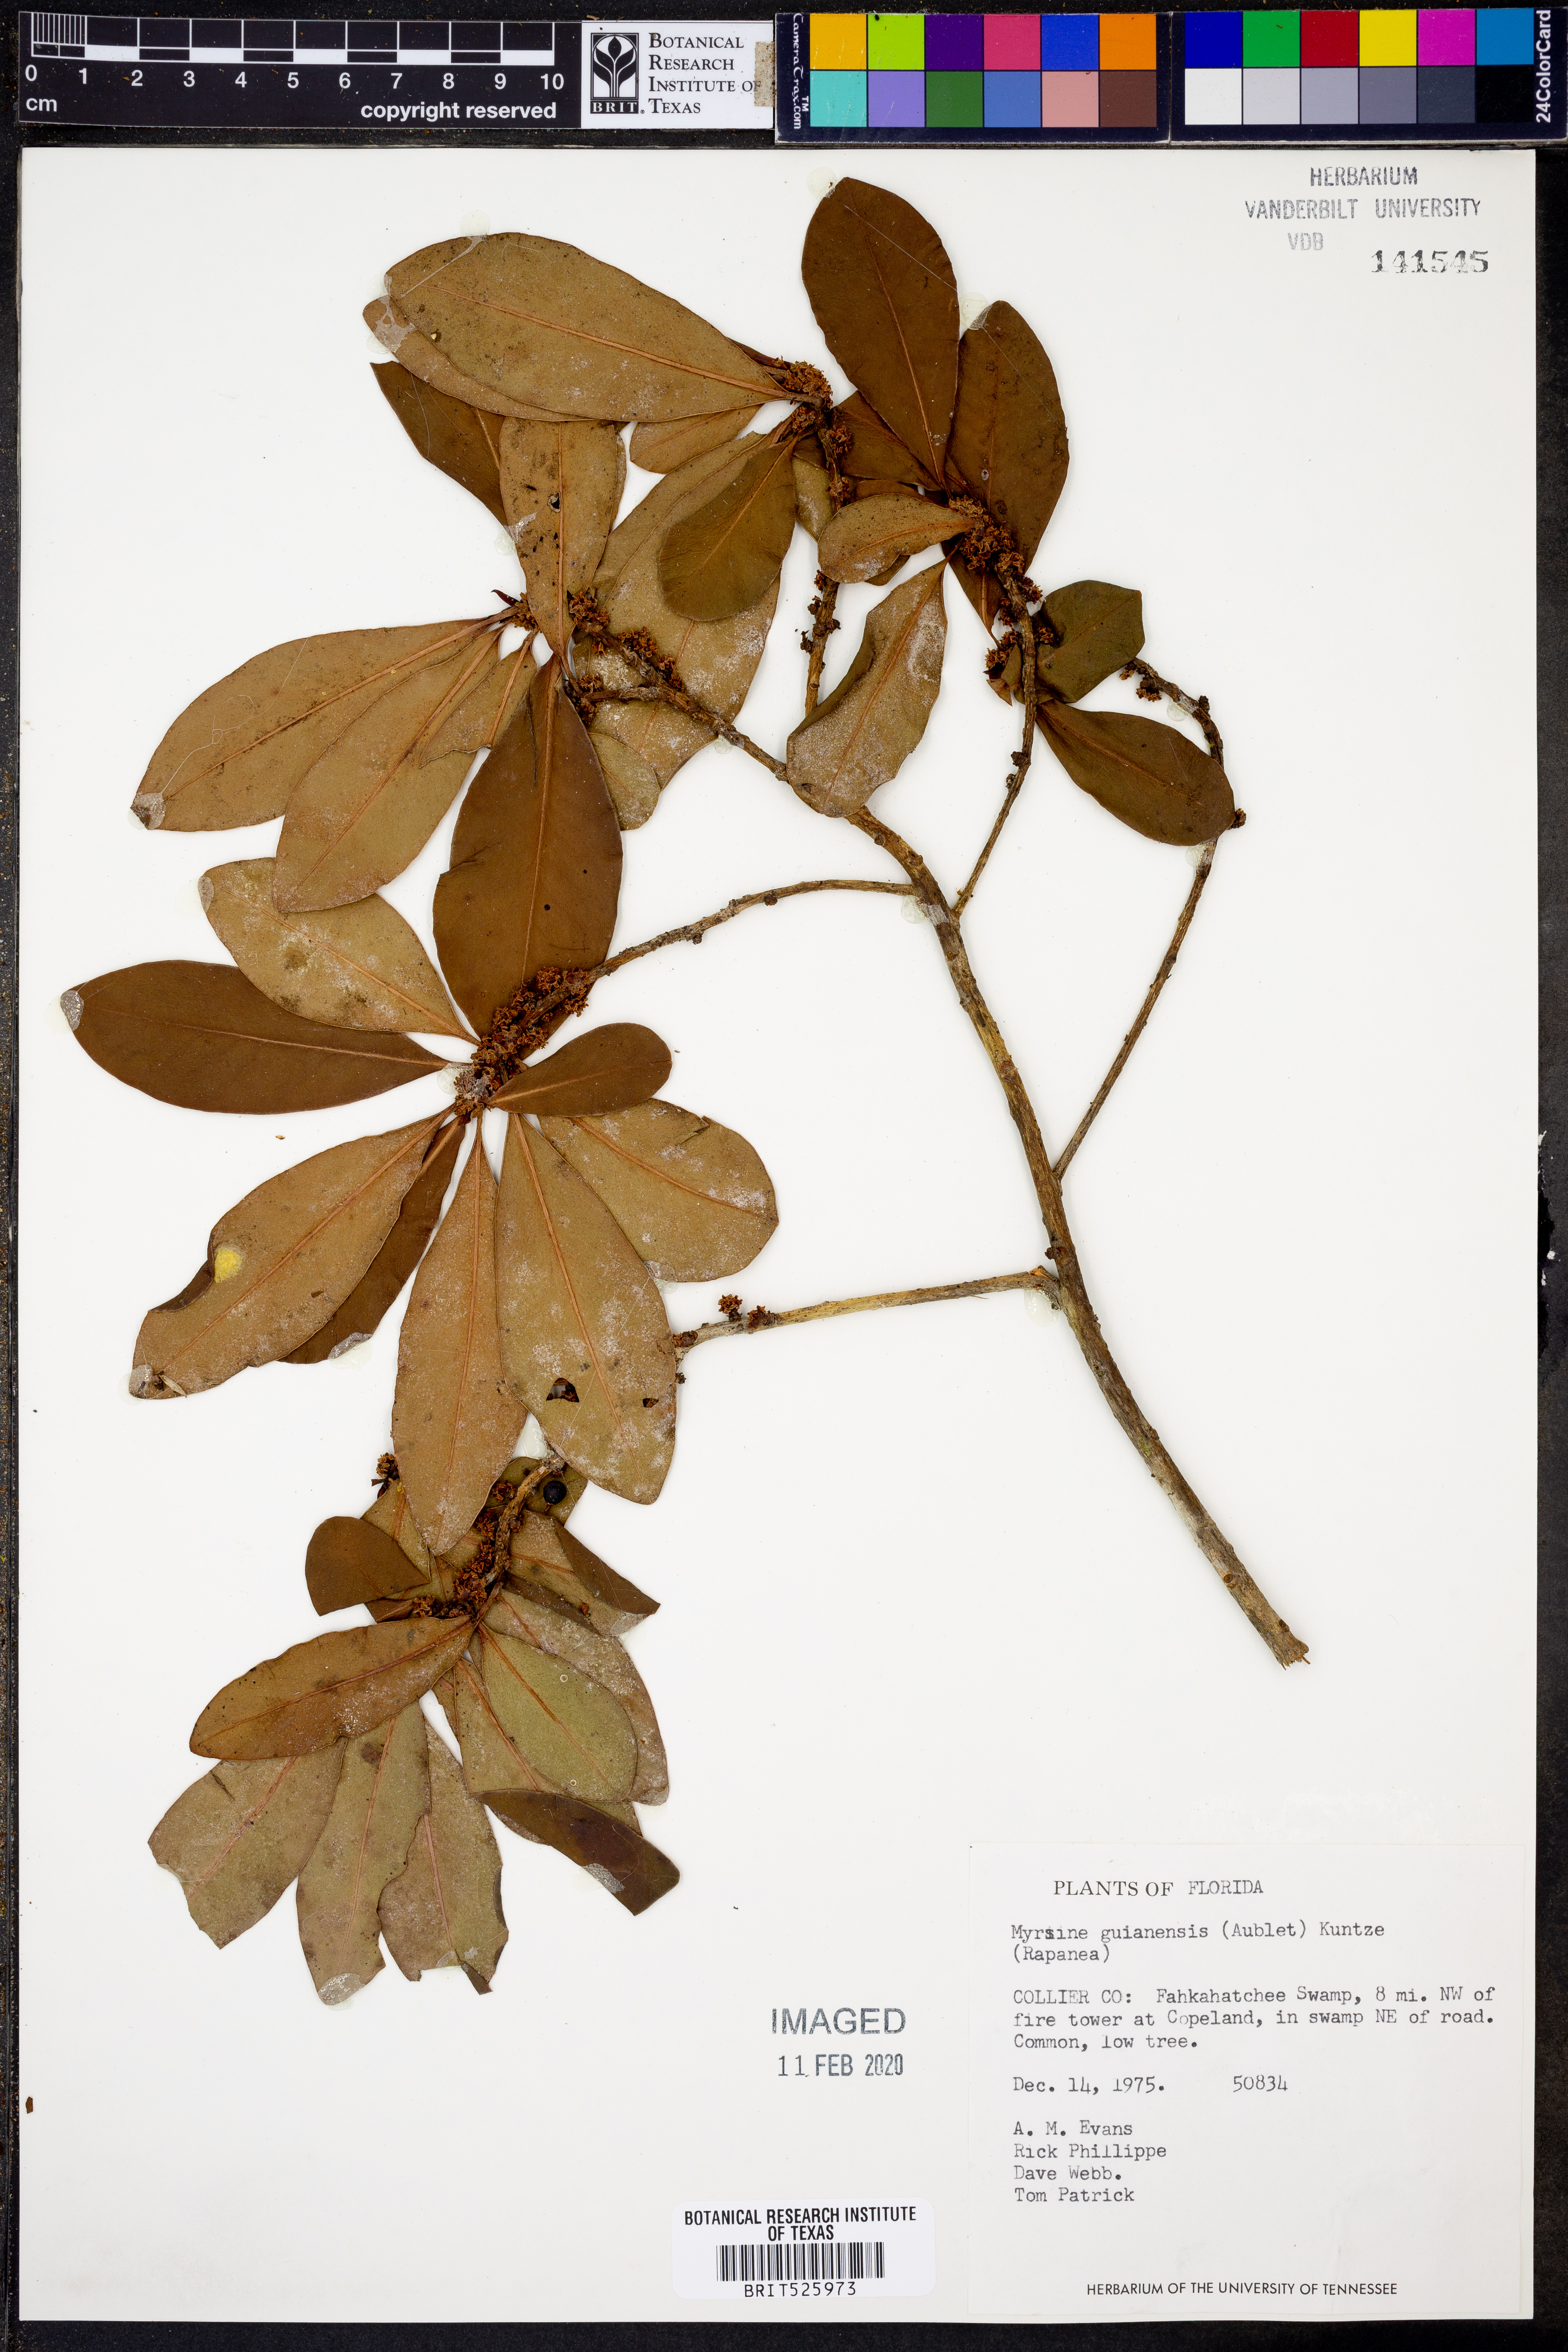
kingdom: Plantae
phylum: Tracheophyta
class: Magnoliopsida
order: Ericales
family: Primulaceae
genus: Myrsine
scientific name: Myrsine guianensis
